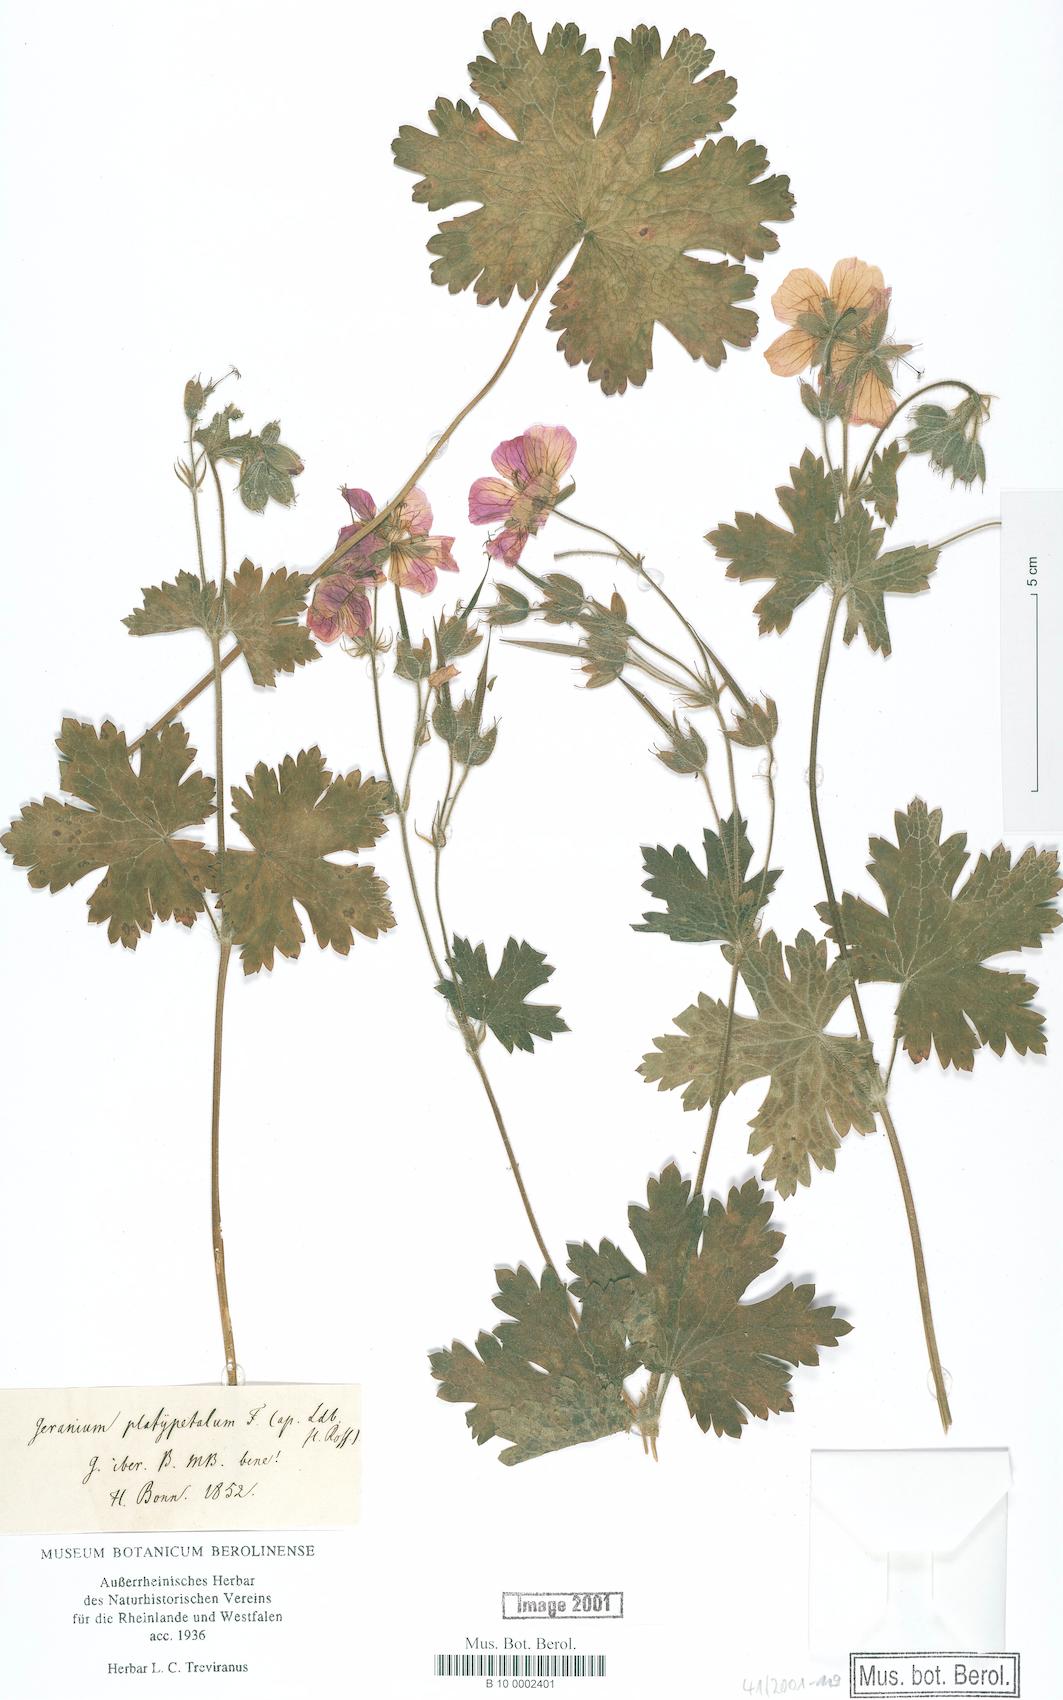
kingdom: Plantae
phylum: Tracheophyta
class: Magnoliopsida
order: Geraniales
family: Geraniaceae
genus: Geranium
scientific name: Geranium platypetalum
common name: Glandular crane's-bill
